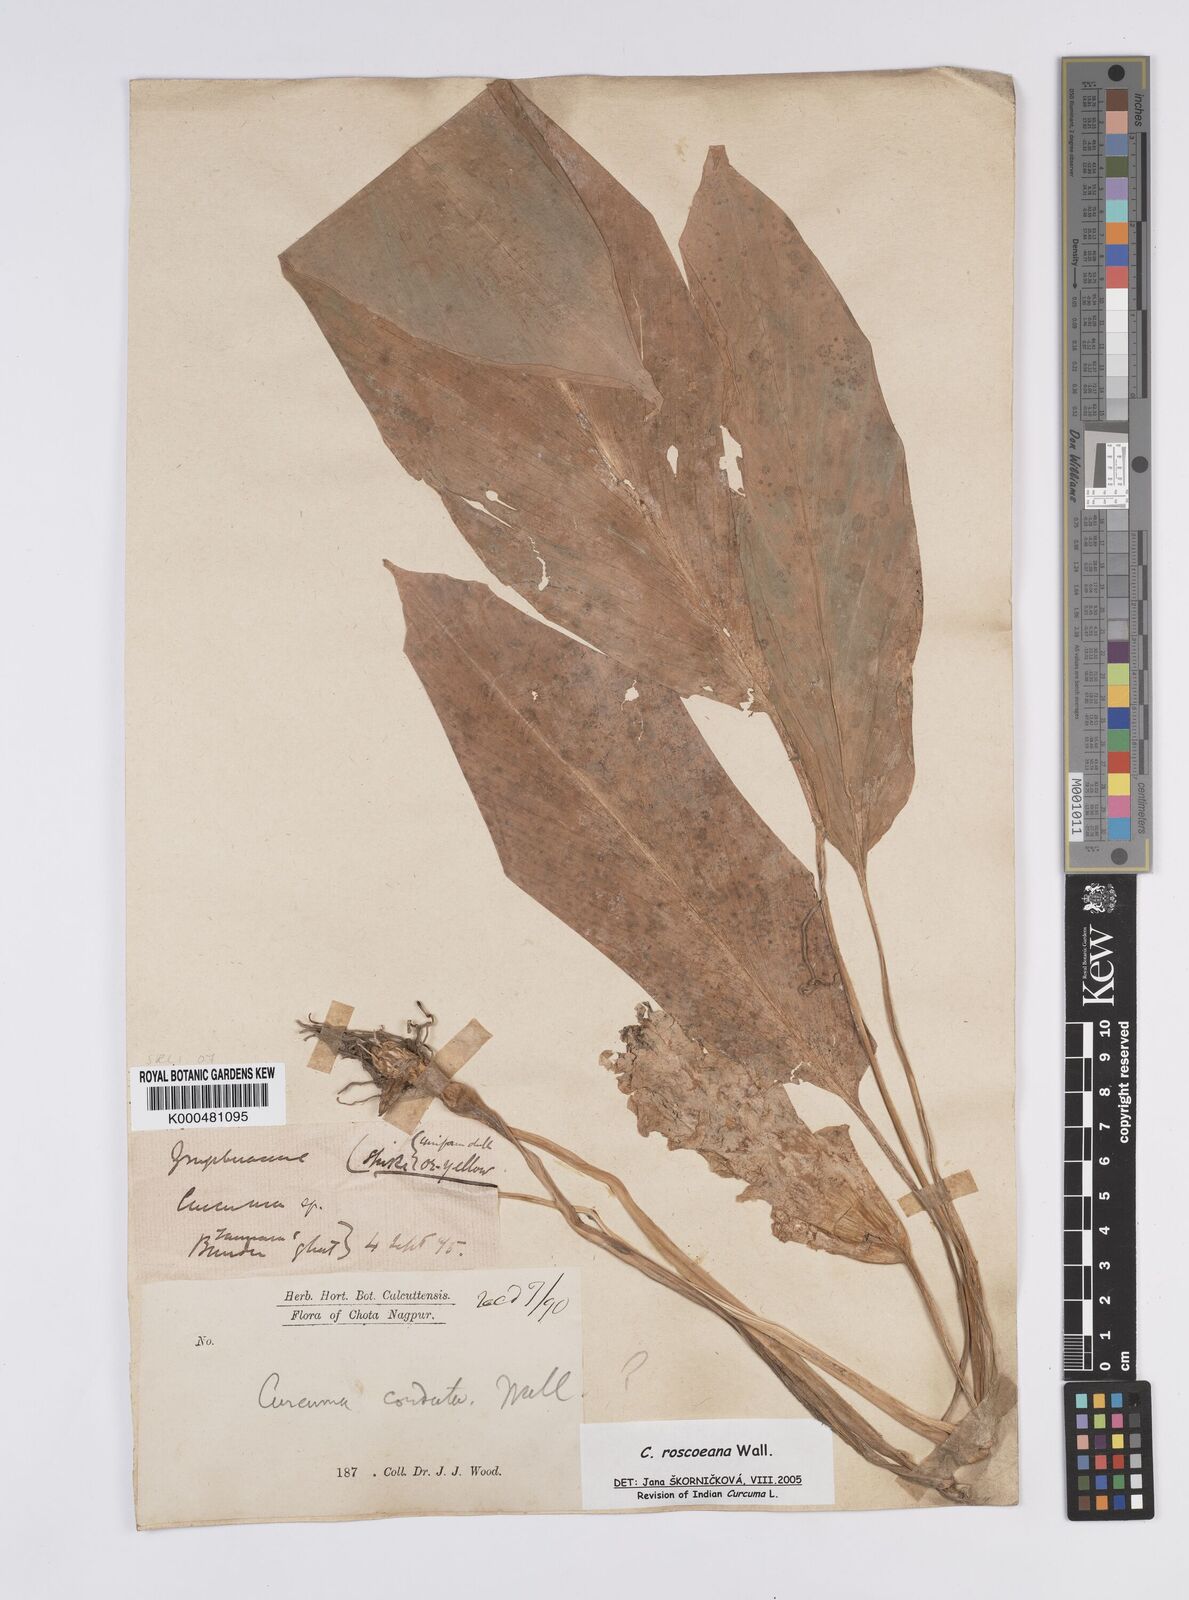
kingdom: Plantae
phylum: Tracheophyta
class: Liliopsida
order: Zingiberales
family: Zingiberaceae
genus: Curcuma
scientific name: Curcuma roscoeana
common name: Jewel of burma
